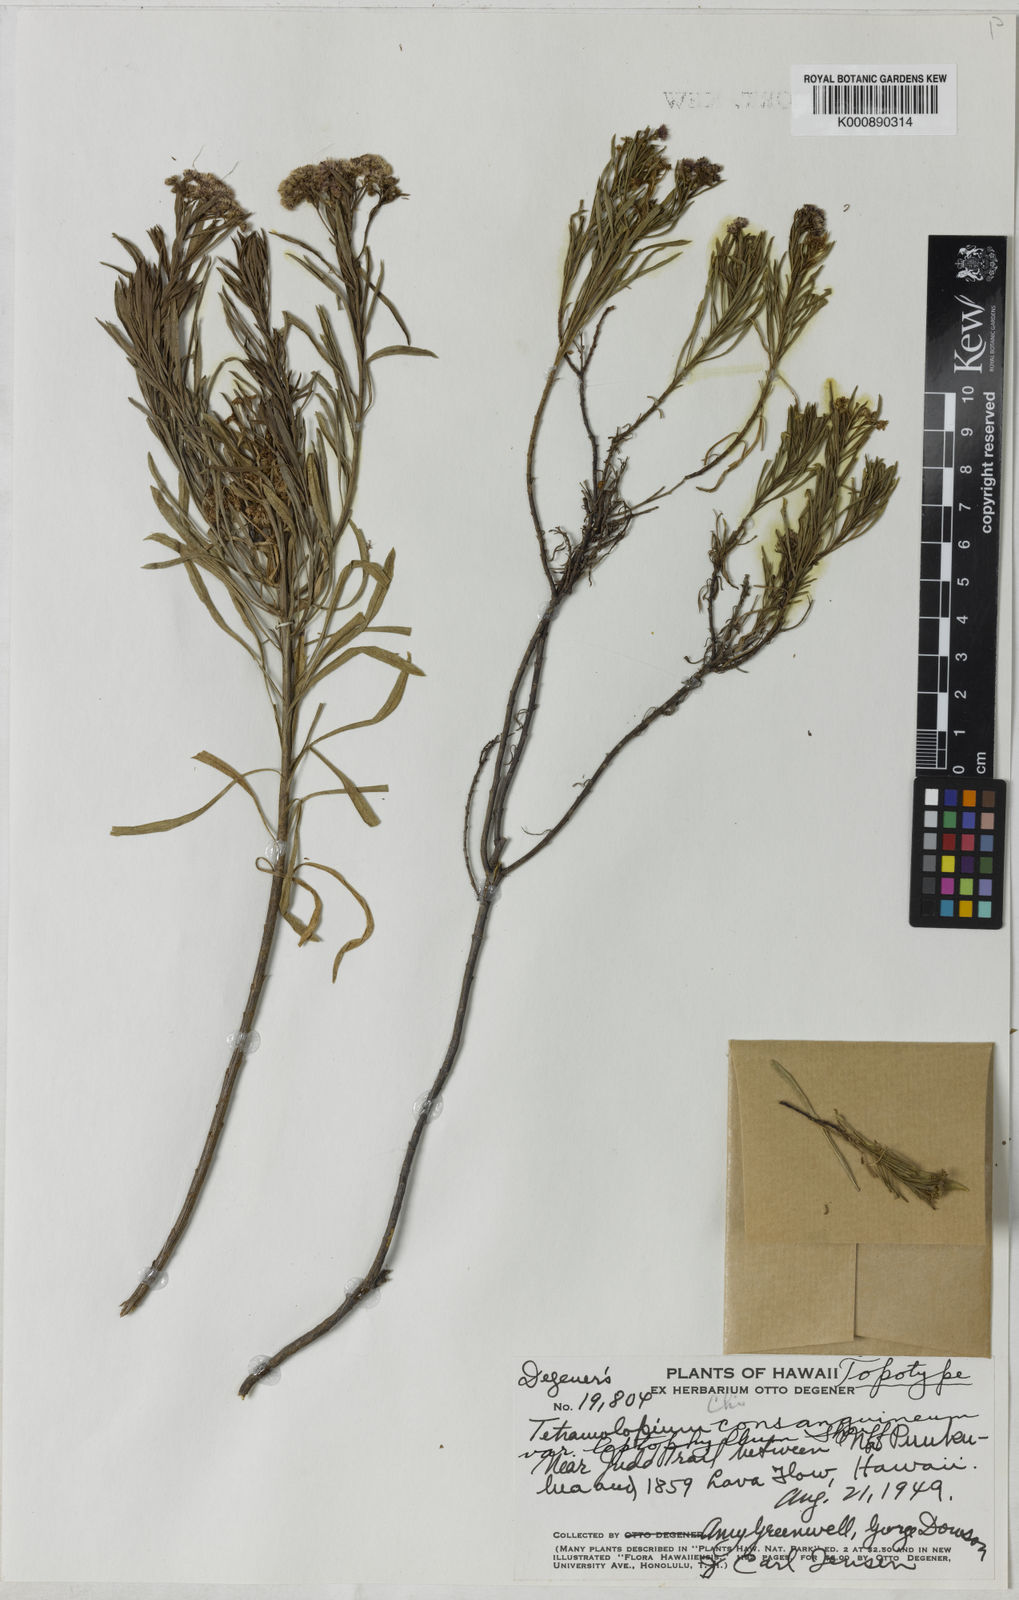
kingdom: Plantae
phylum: Tracheophyta
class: Magnoliopsida
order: Asterales
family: Asteraceae
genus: Tetramolopium
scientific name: Tetramolopium consanguineum
